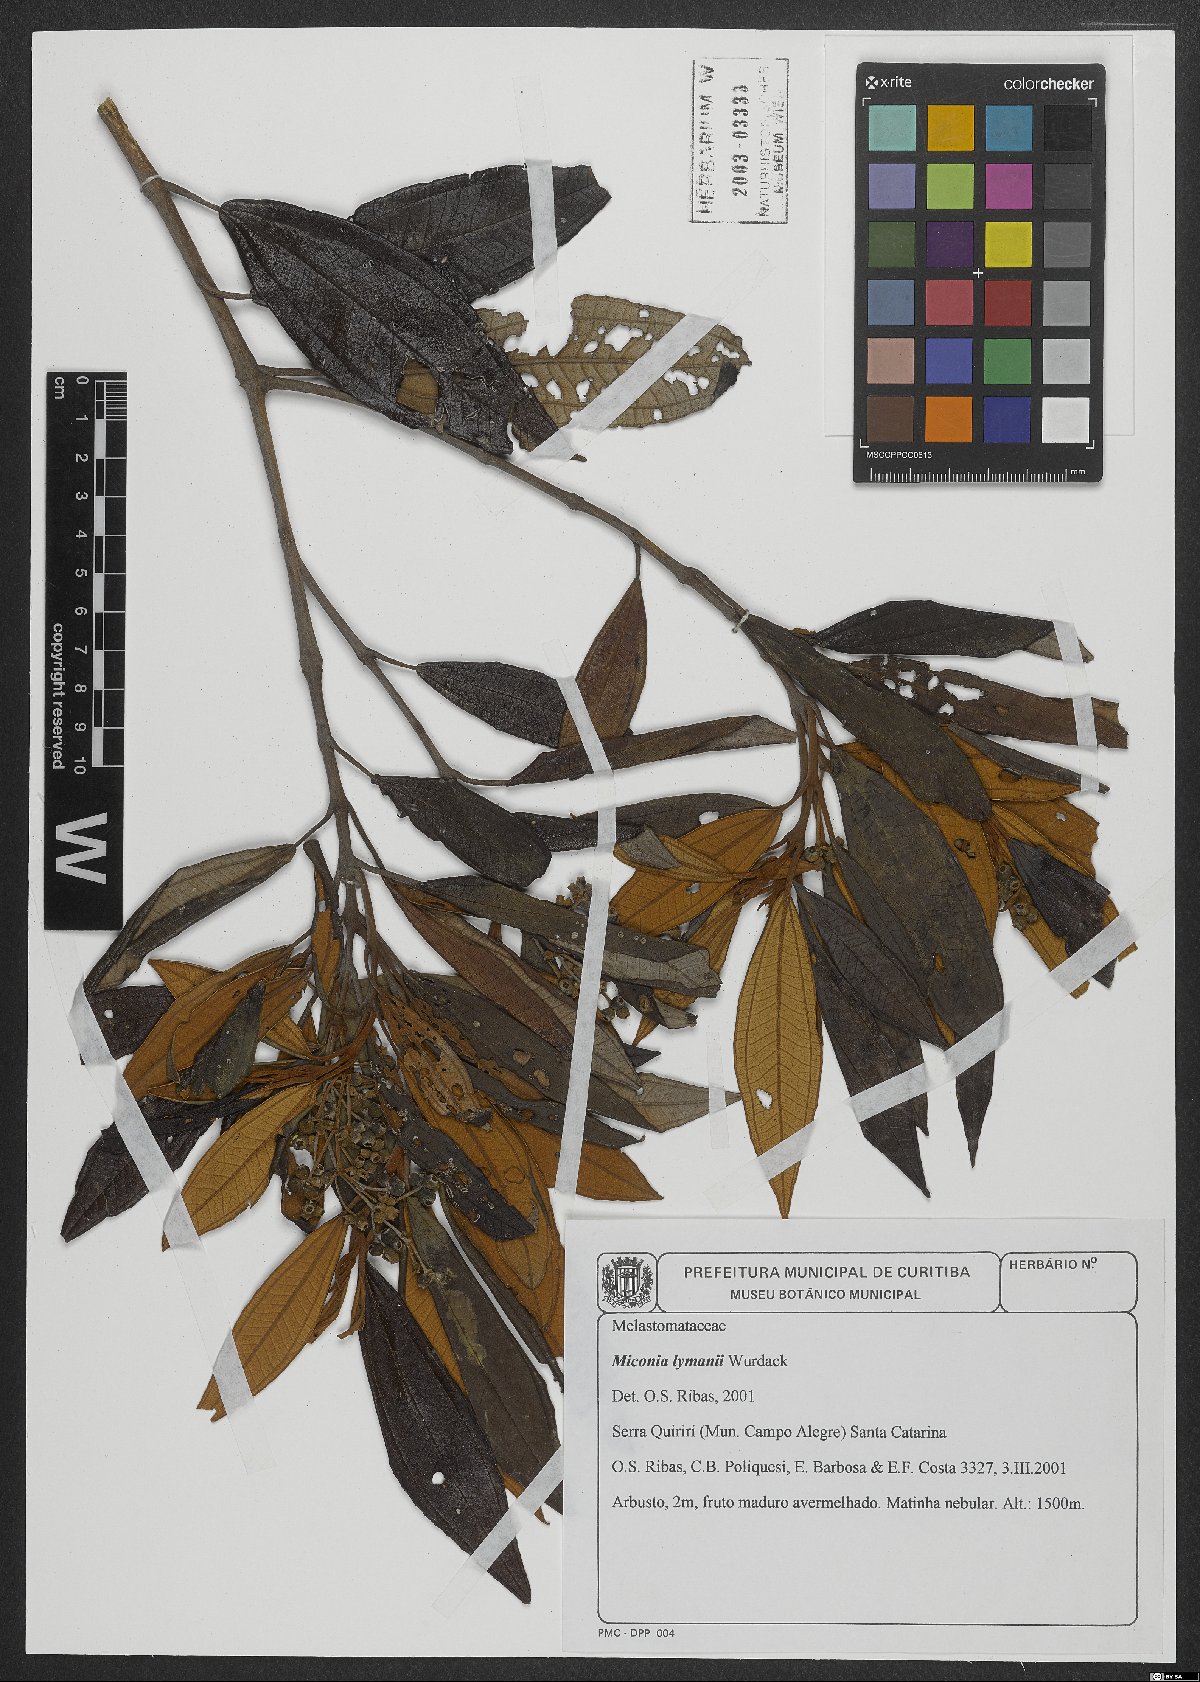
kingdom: Plantae
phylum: Tracheophyta
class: Magnoliopsida
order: Myrtales
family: Melastomataceae
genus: Miconia
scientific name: Miconia lymanii
